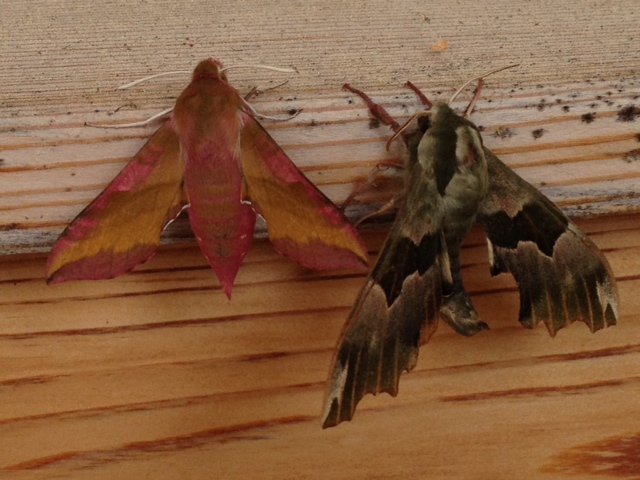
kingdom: Animalia
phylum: Arthropoda
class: Insecta
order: Lepidoptera
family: Sphingidae
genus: Mimas
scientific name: Mimas tiliae
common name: Lime hawk-moth
